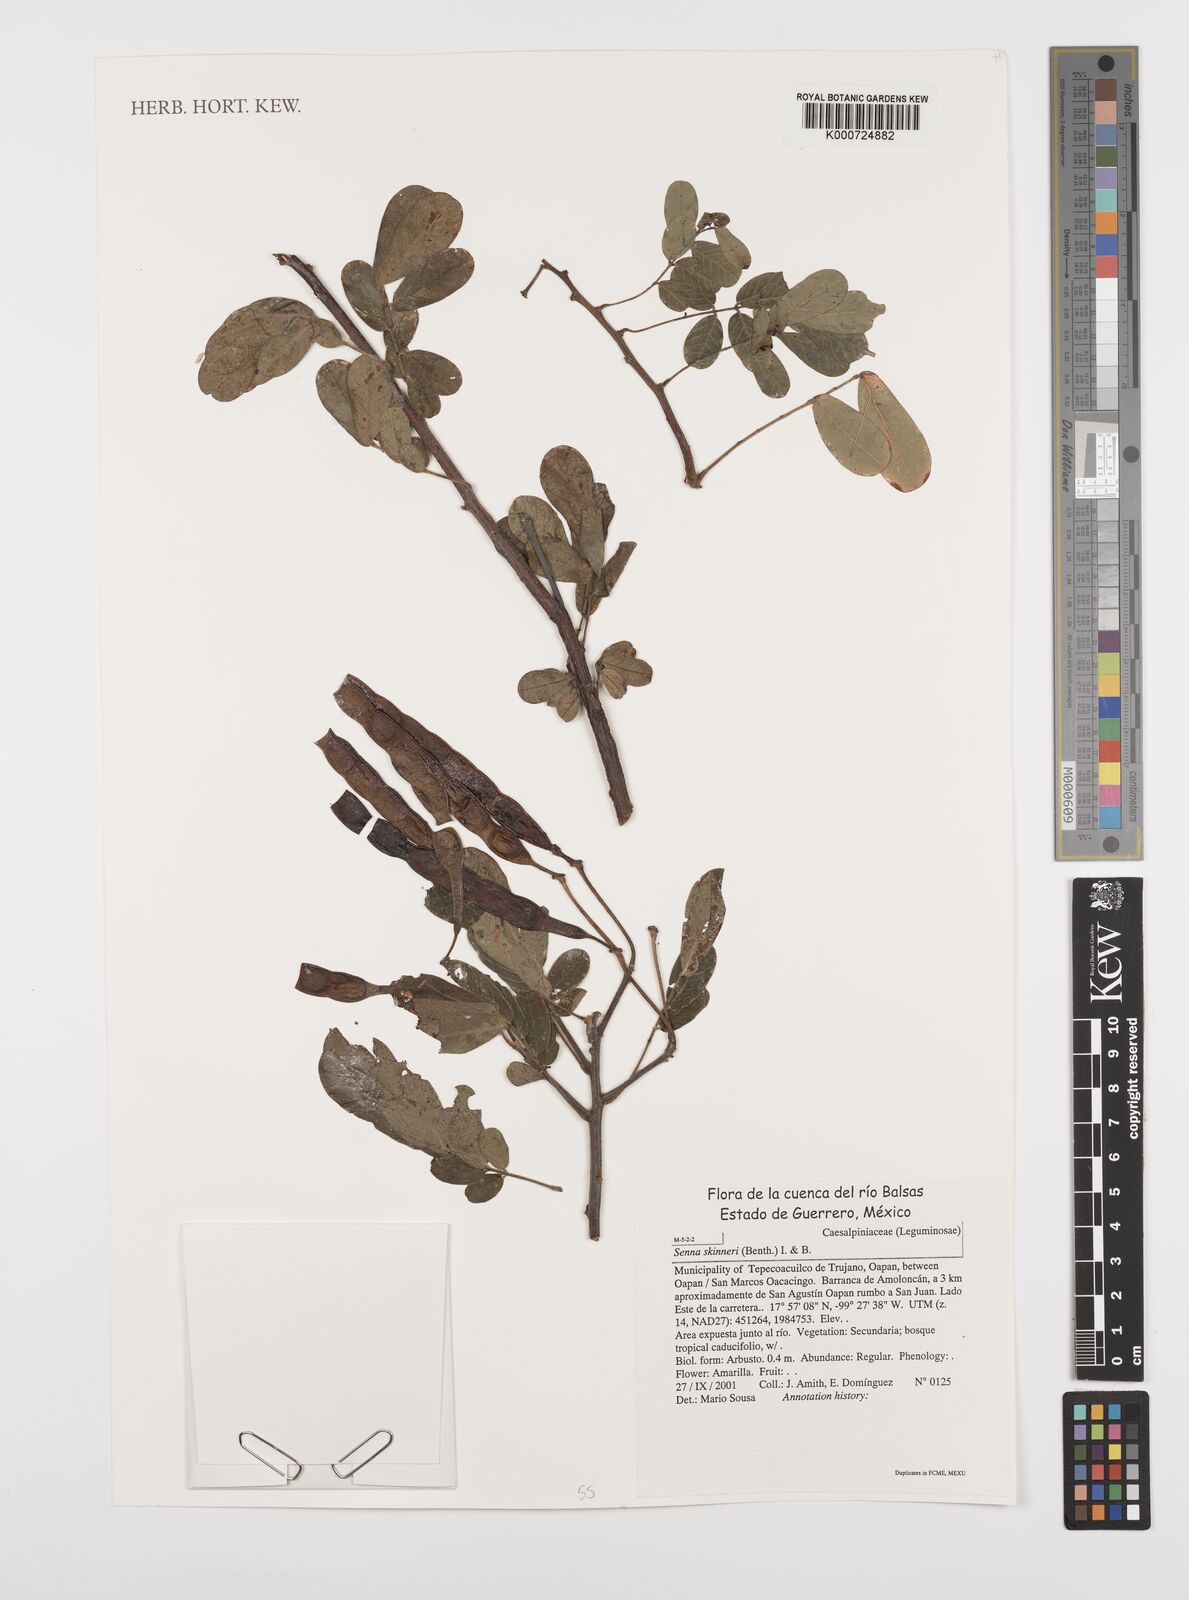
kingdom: Plantae
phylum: Tracheophyta
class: Magnoliopsida
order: Fabales
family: Fabaceae
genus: Senna
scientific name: Senna skinneri
